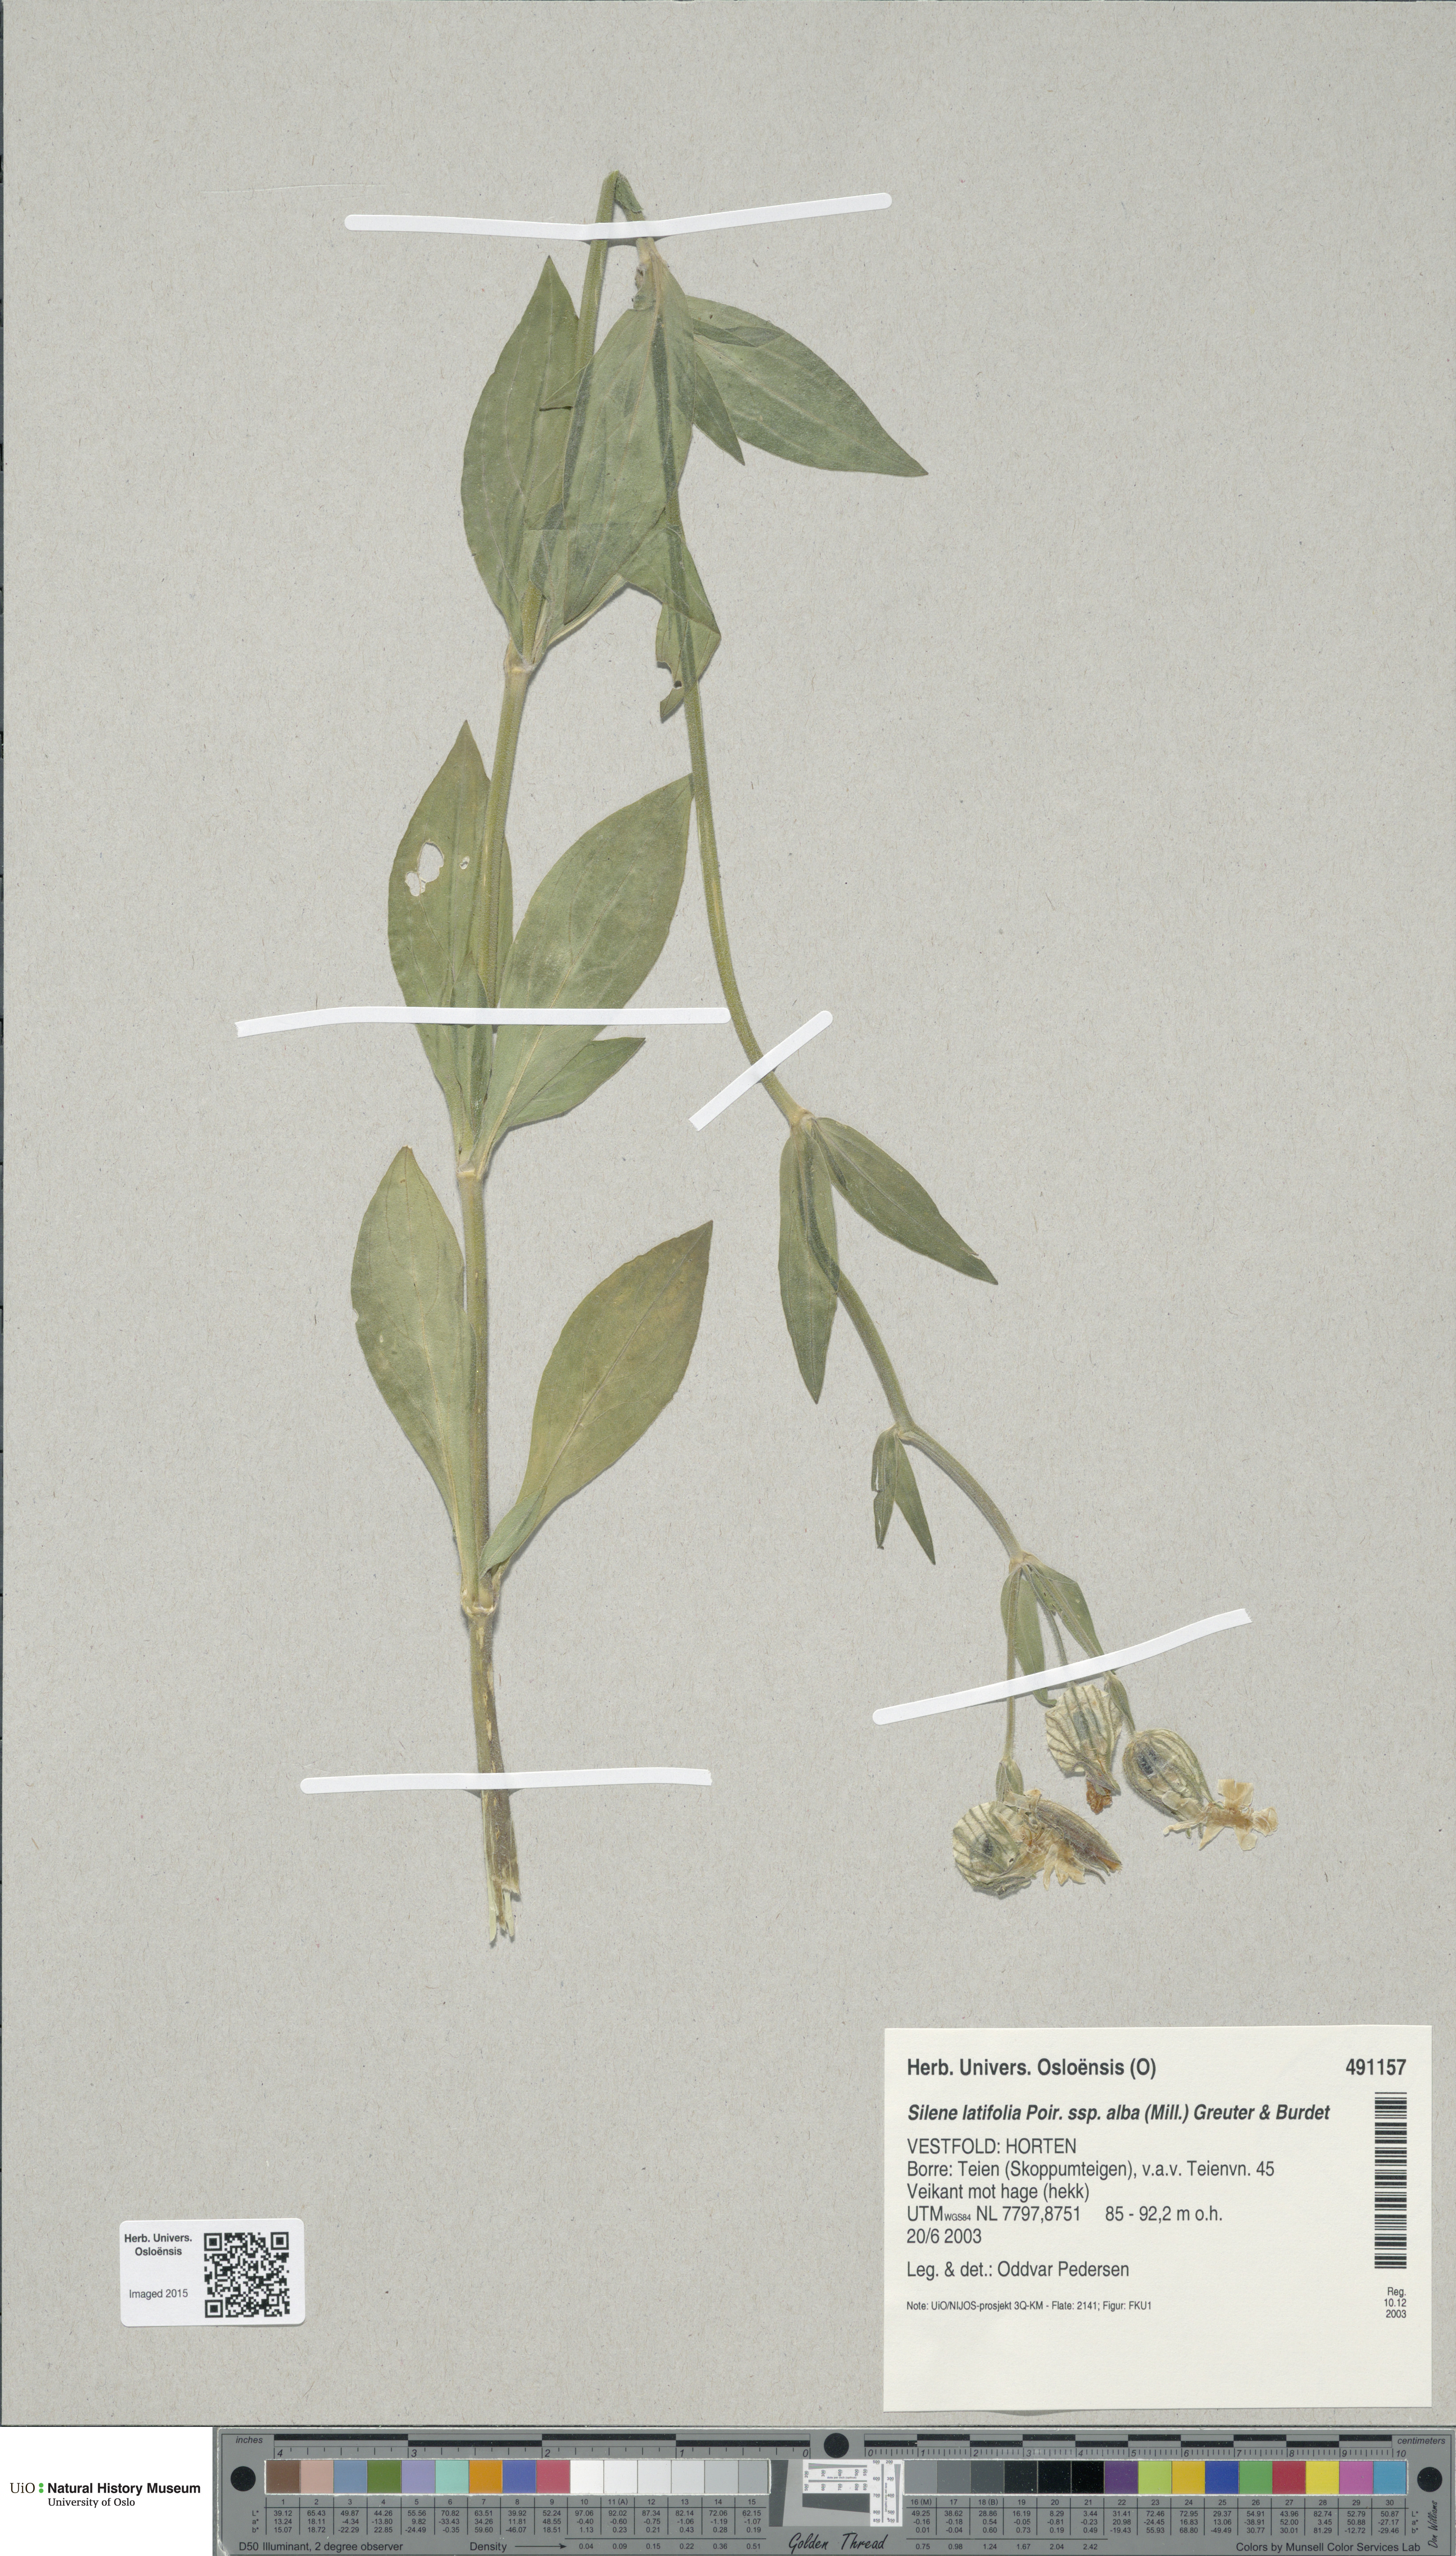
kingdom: Plantae
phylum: Tracheophyta
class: Magnoliopsida
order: Caryophyllales
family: Caryophyllaceae
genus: Silene
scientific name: Silene latifolia
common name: White campion
